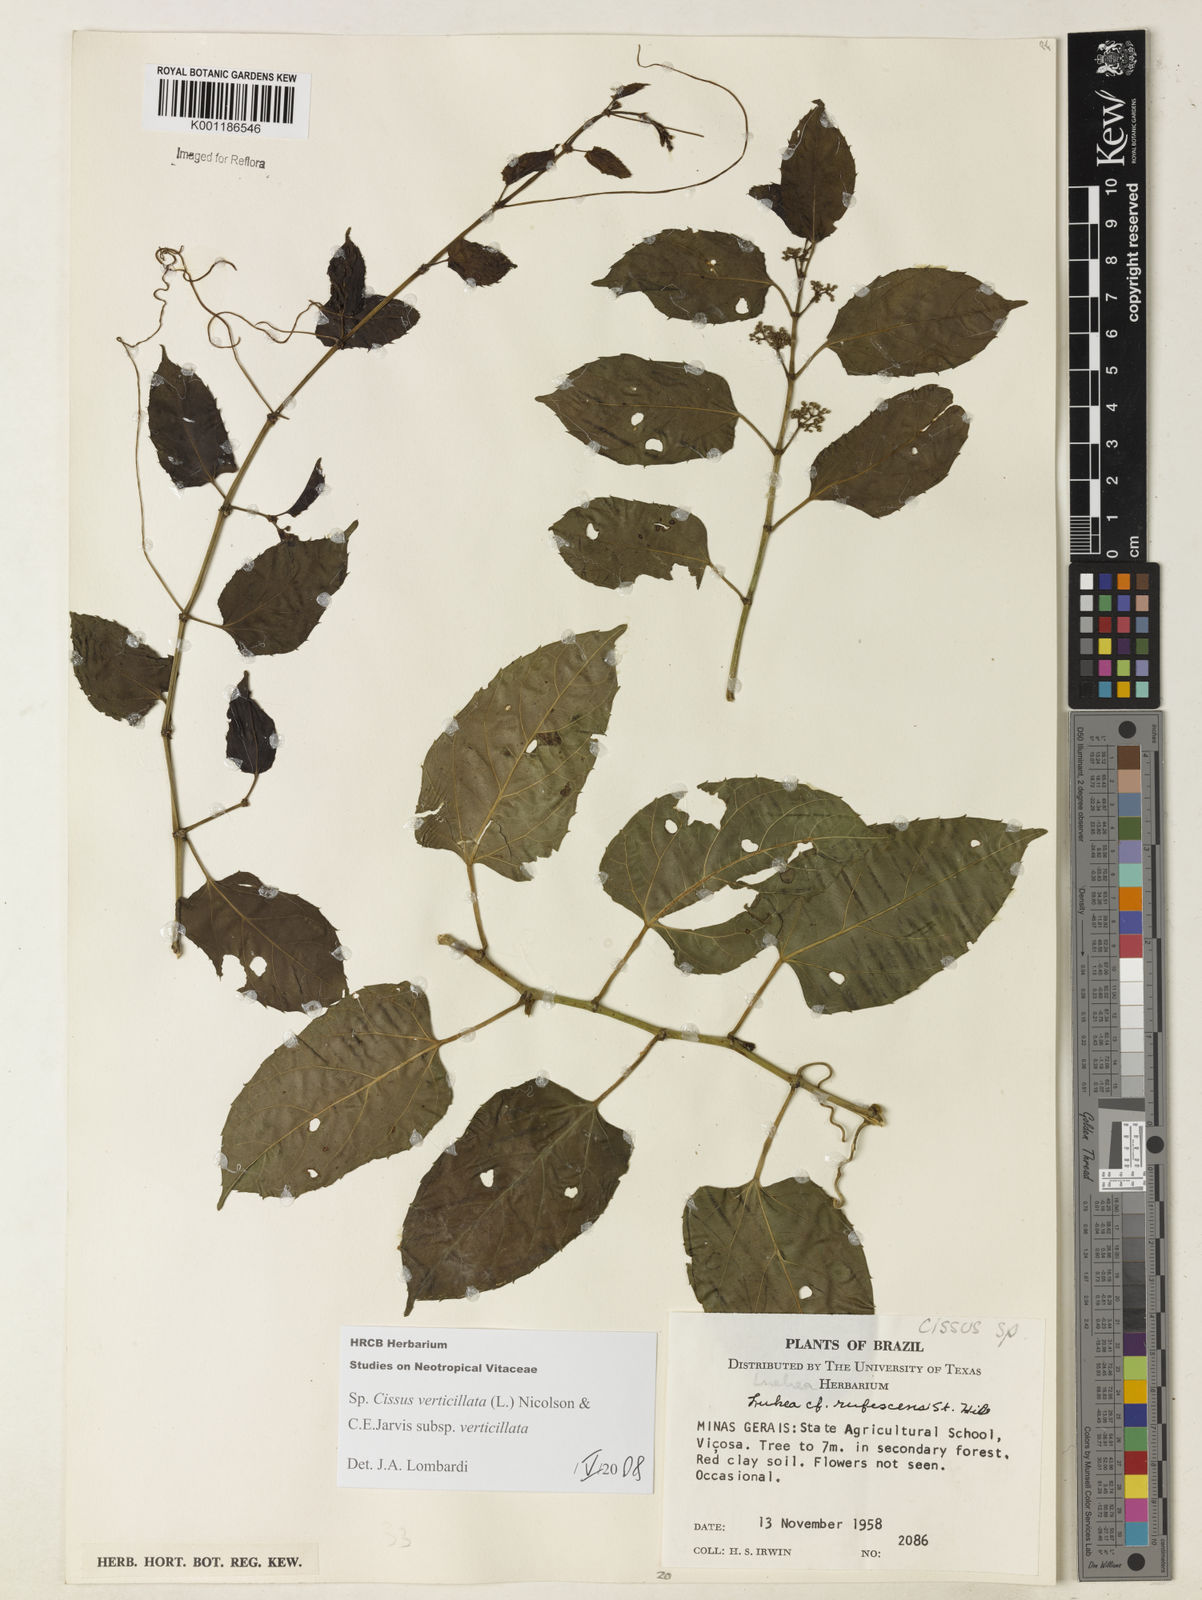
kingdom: Plantae
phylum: Tracheophyta
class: Magnoliopsida
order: Vitales
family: Vitaceae
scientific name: Vitaceae
